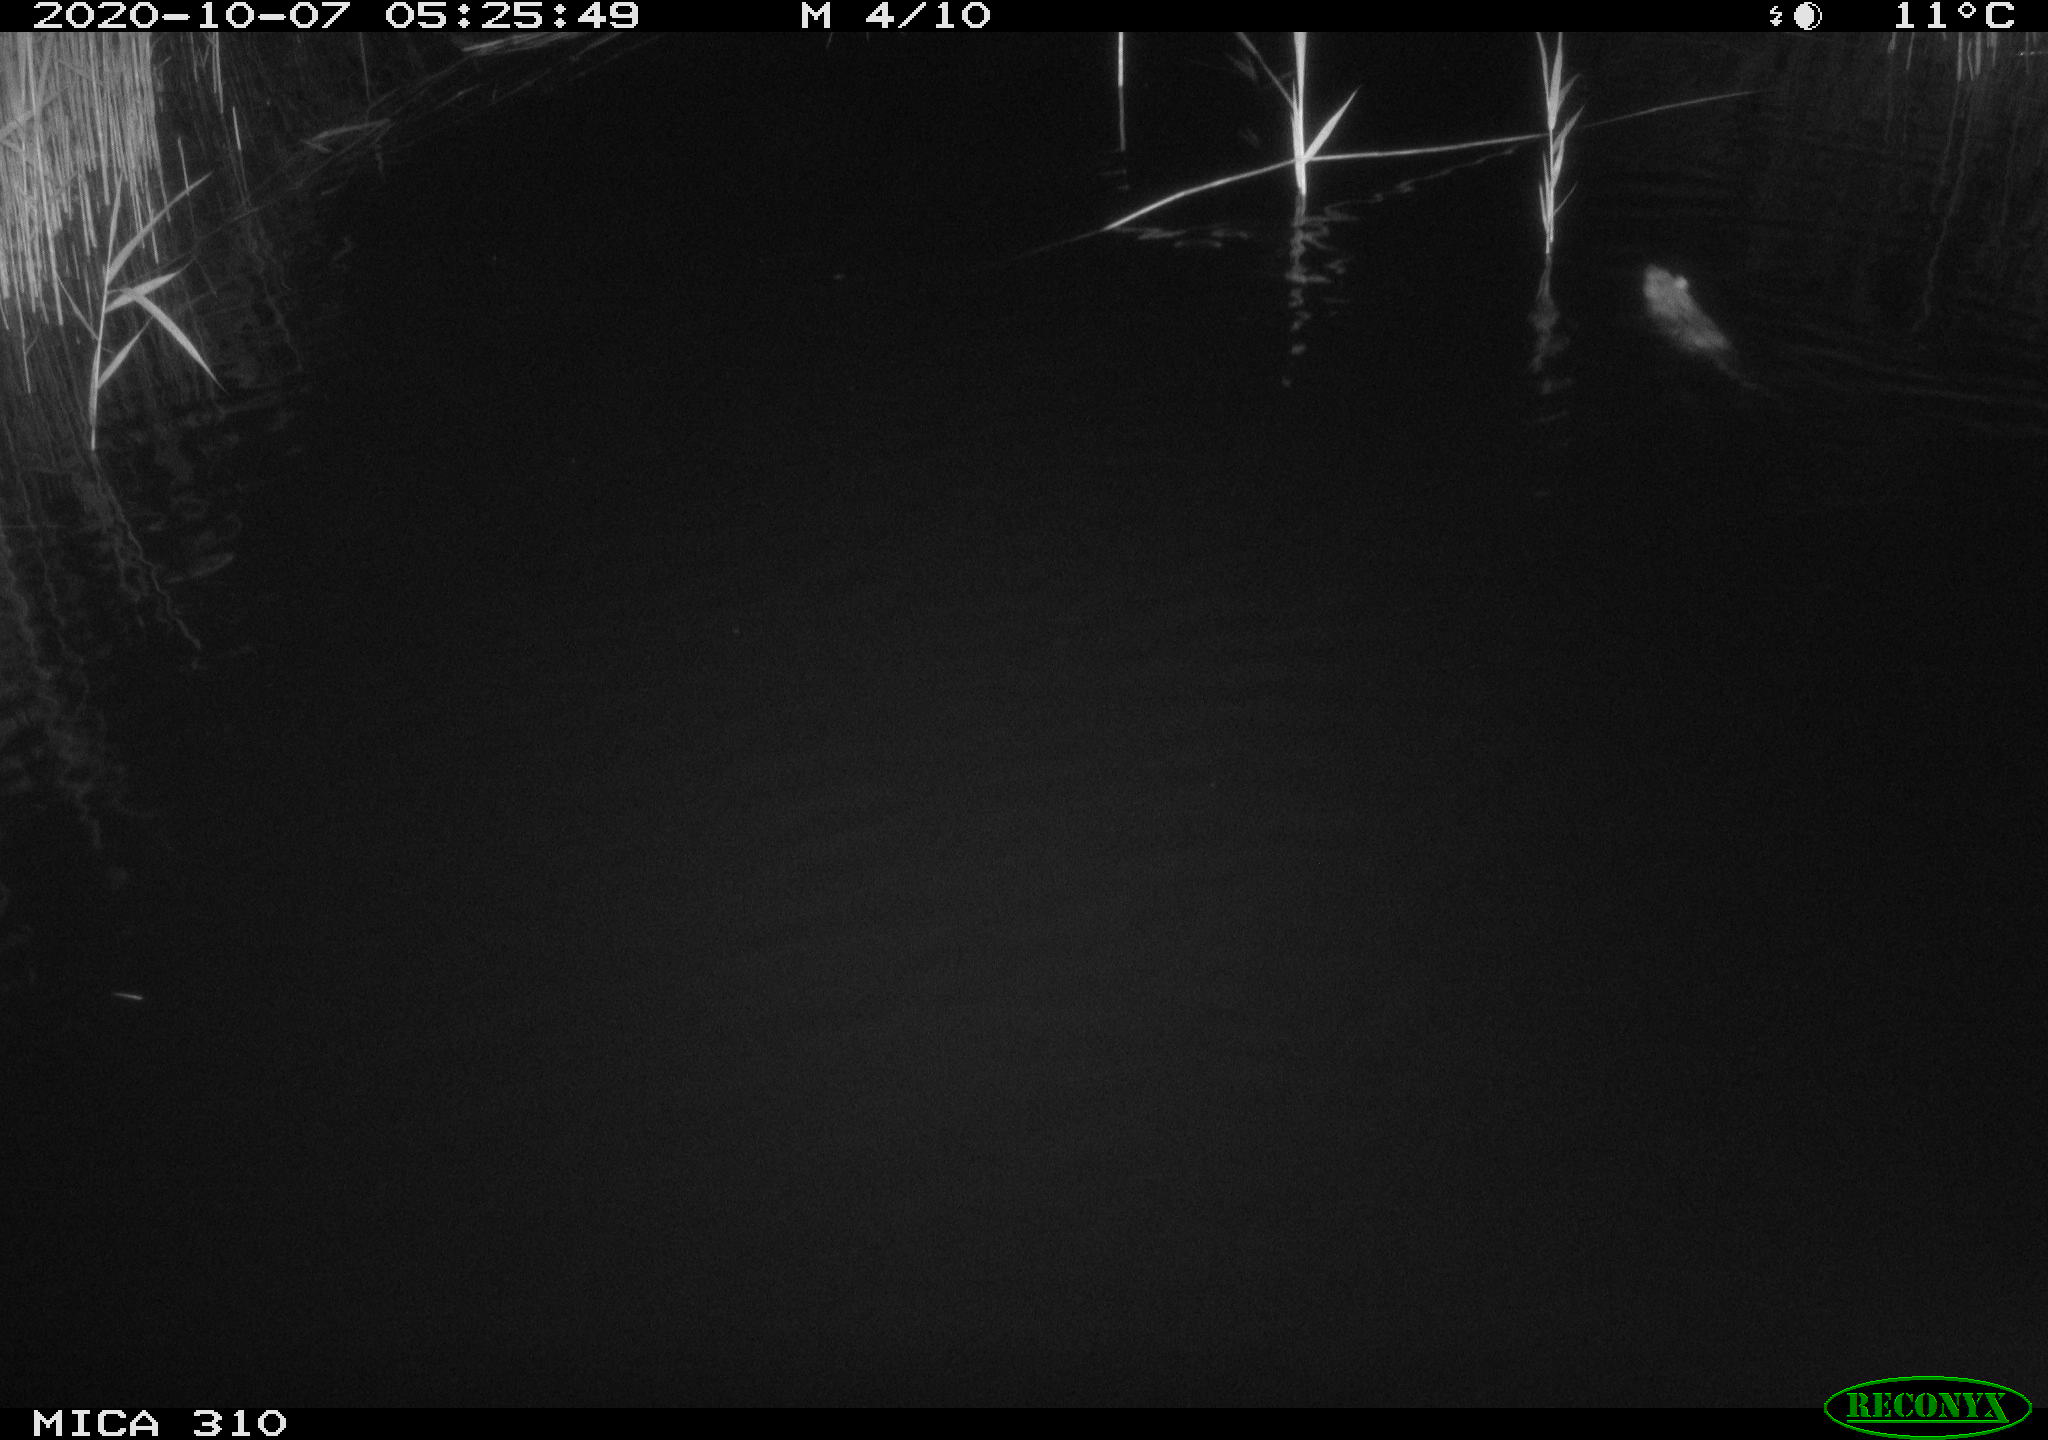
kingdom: Animalia
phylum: Chordata
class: Mammalia
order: Rodentia
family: Muridae
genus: Rattus
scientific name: Rattus norvegicus
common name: Brown rat
